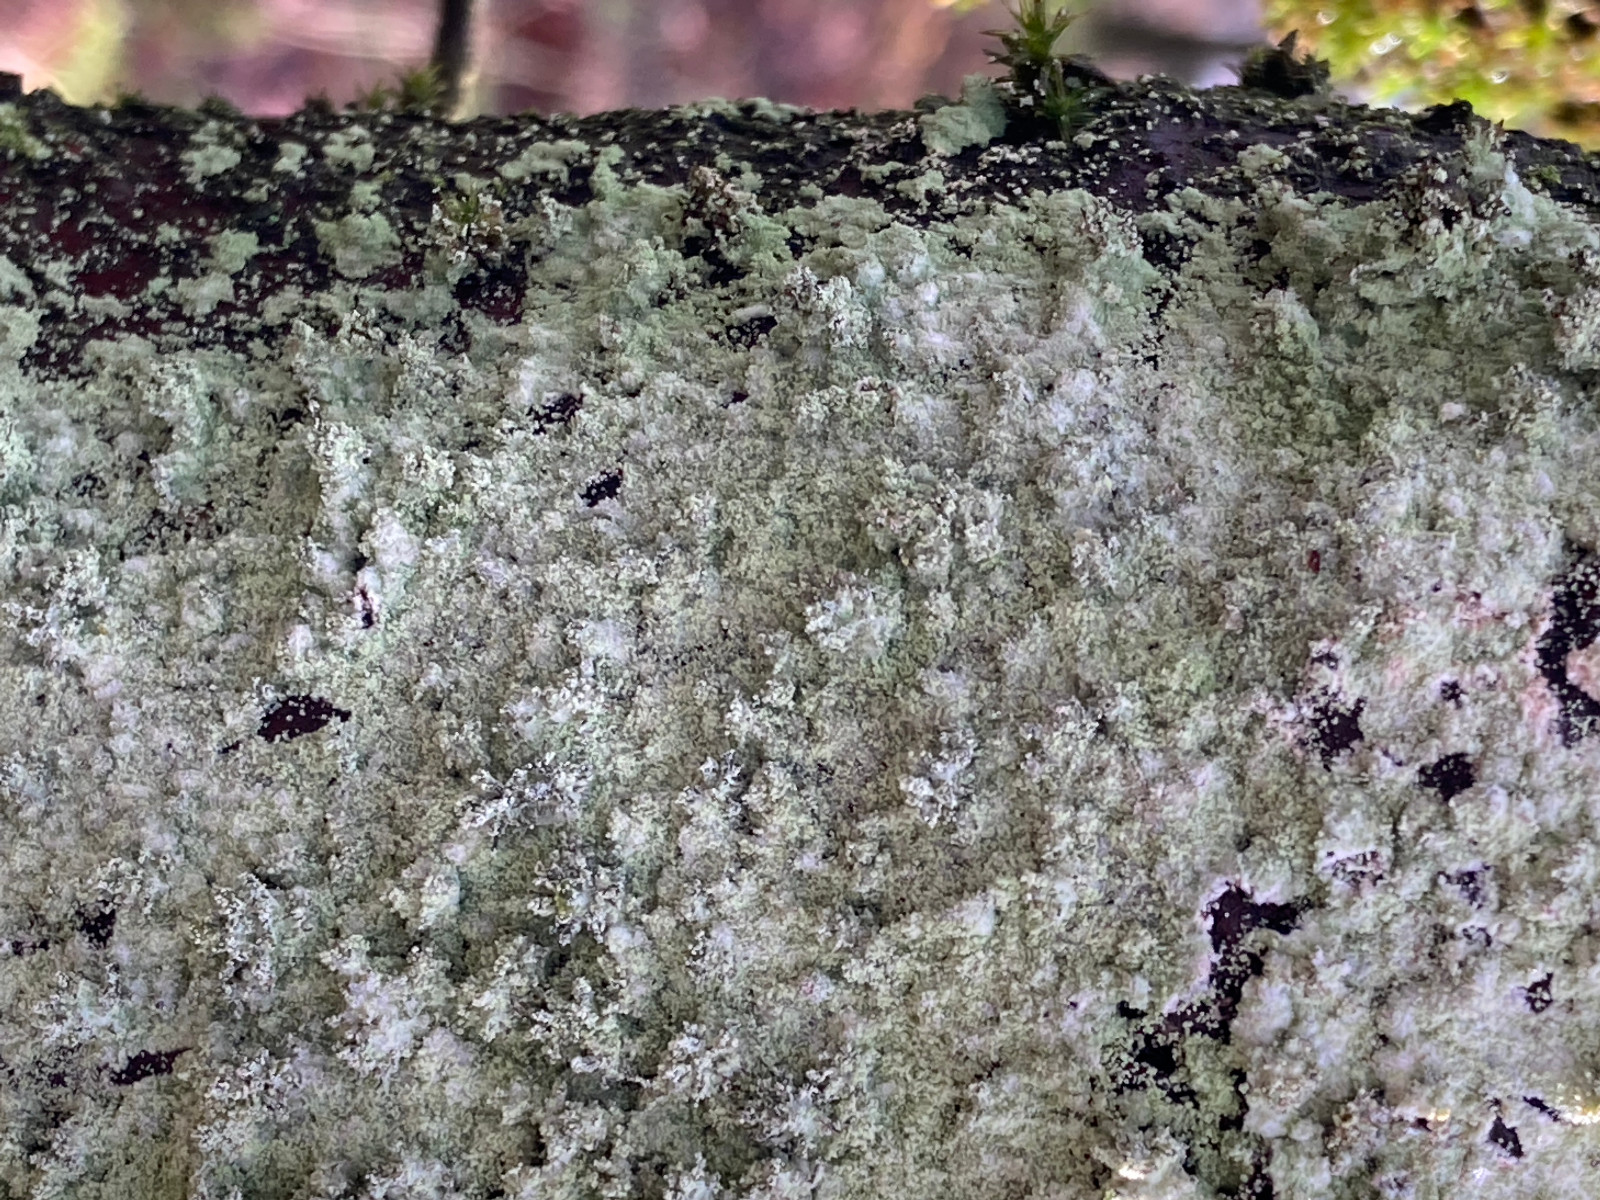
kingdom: Fungi
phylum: Ascomycota
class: Lecanoromycetes
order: Lecanorales
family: Stereocaulaceae
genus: Lepraria
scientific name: Lepraria
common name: støvlav
